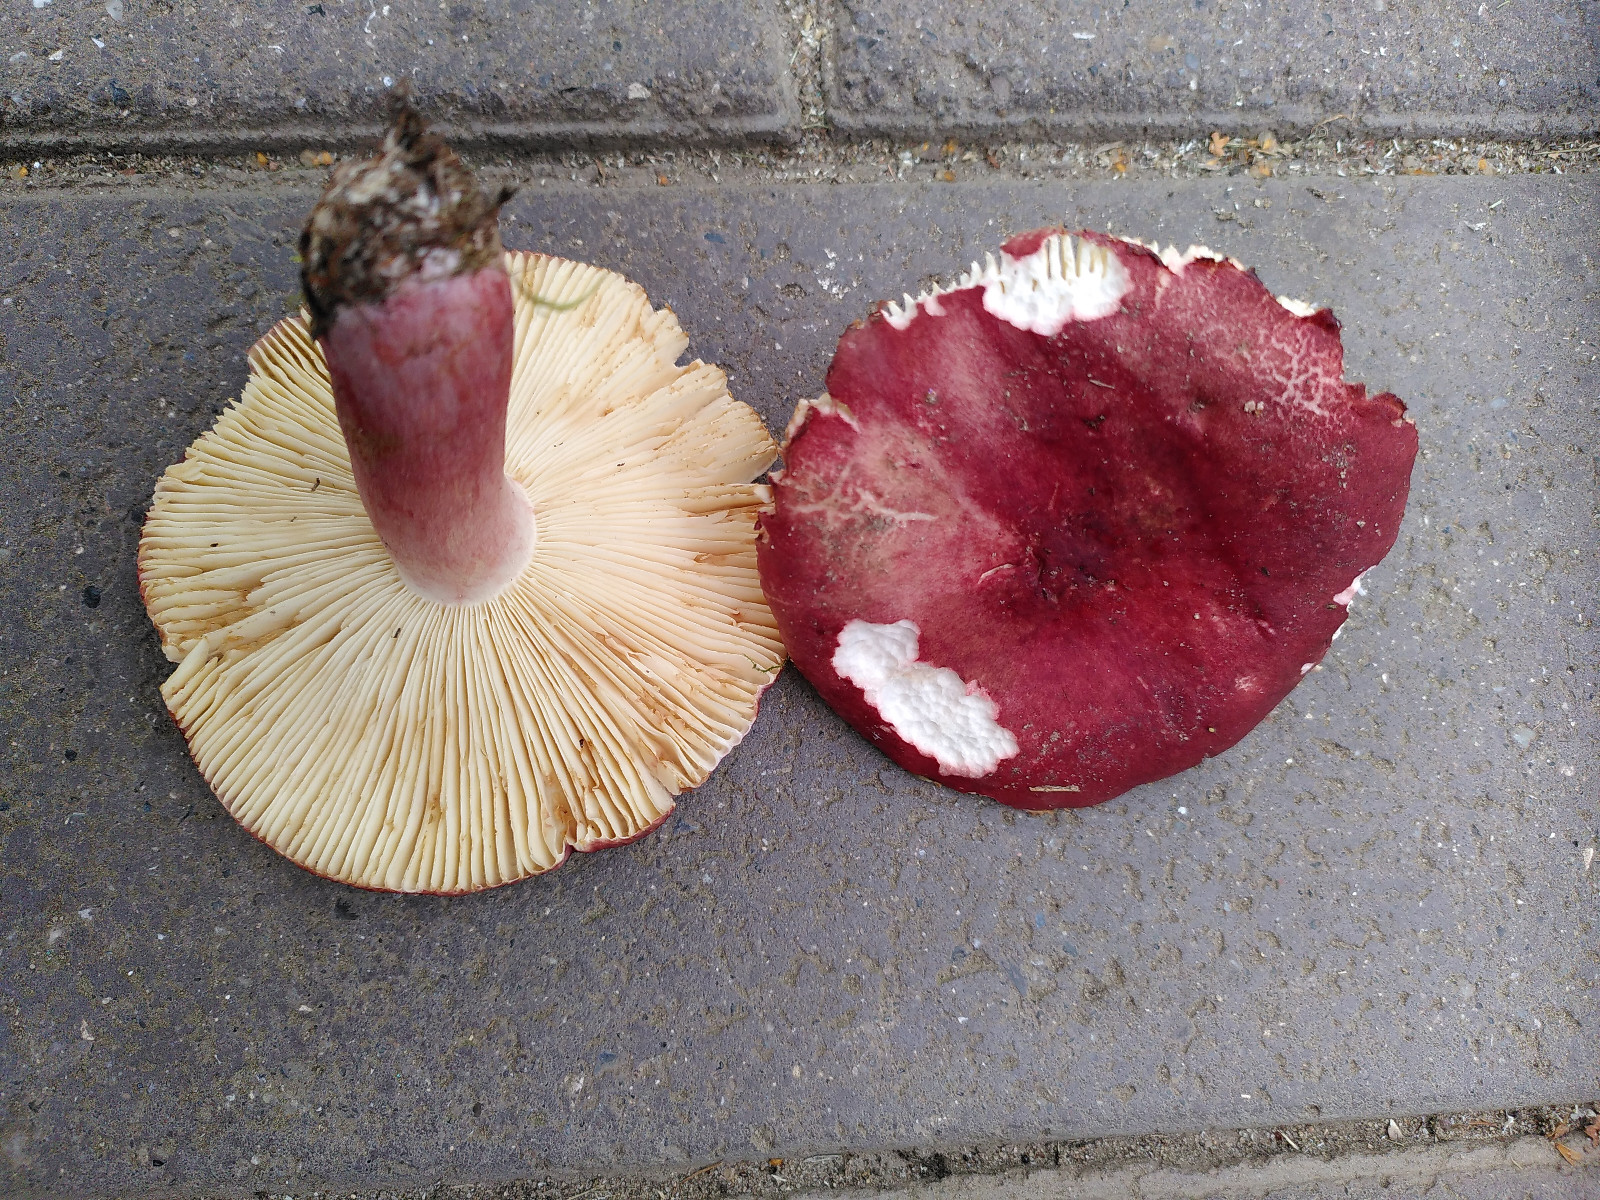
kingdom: Fungi
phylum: Basidiomycota
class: Agaricomycetes
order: Russulales
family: Russulaceae
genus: Russula
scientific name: Russula queletii
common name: Quélets skørhat
